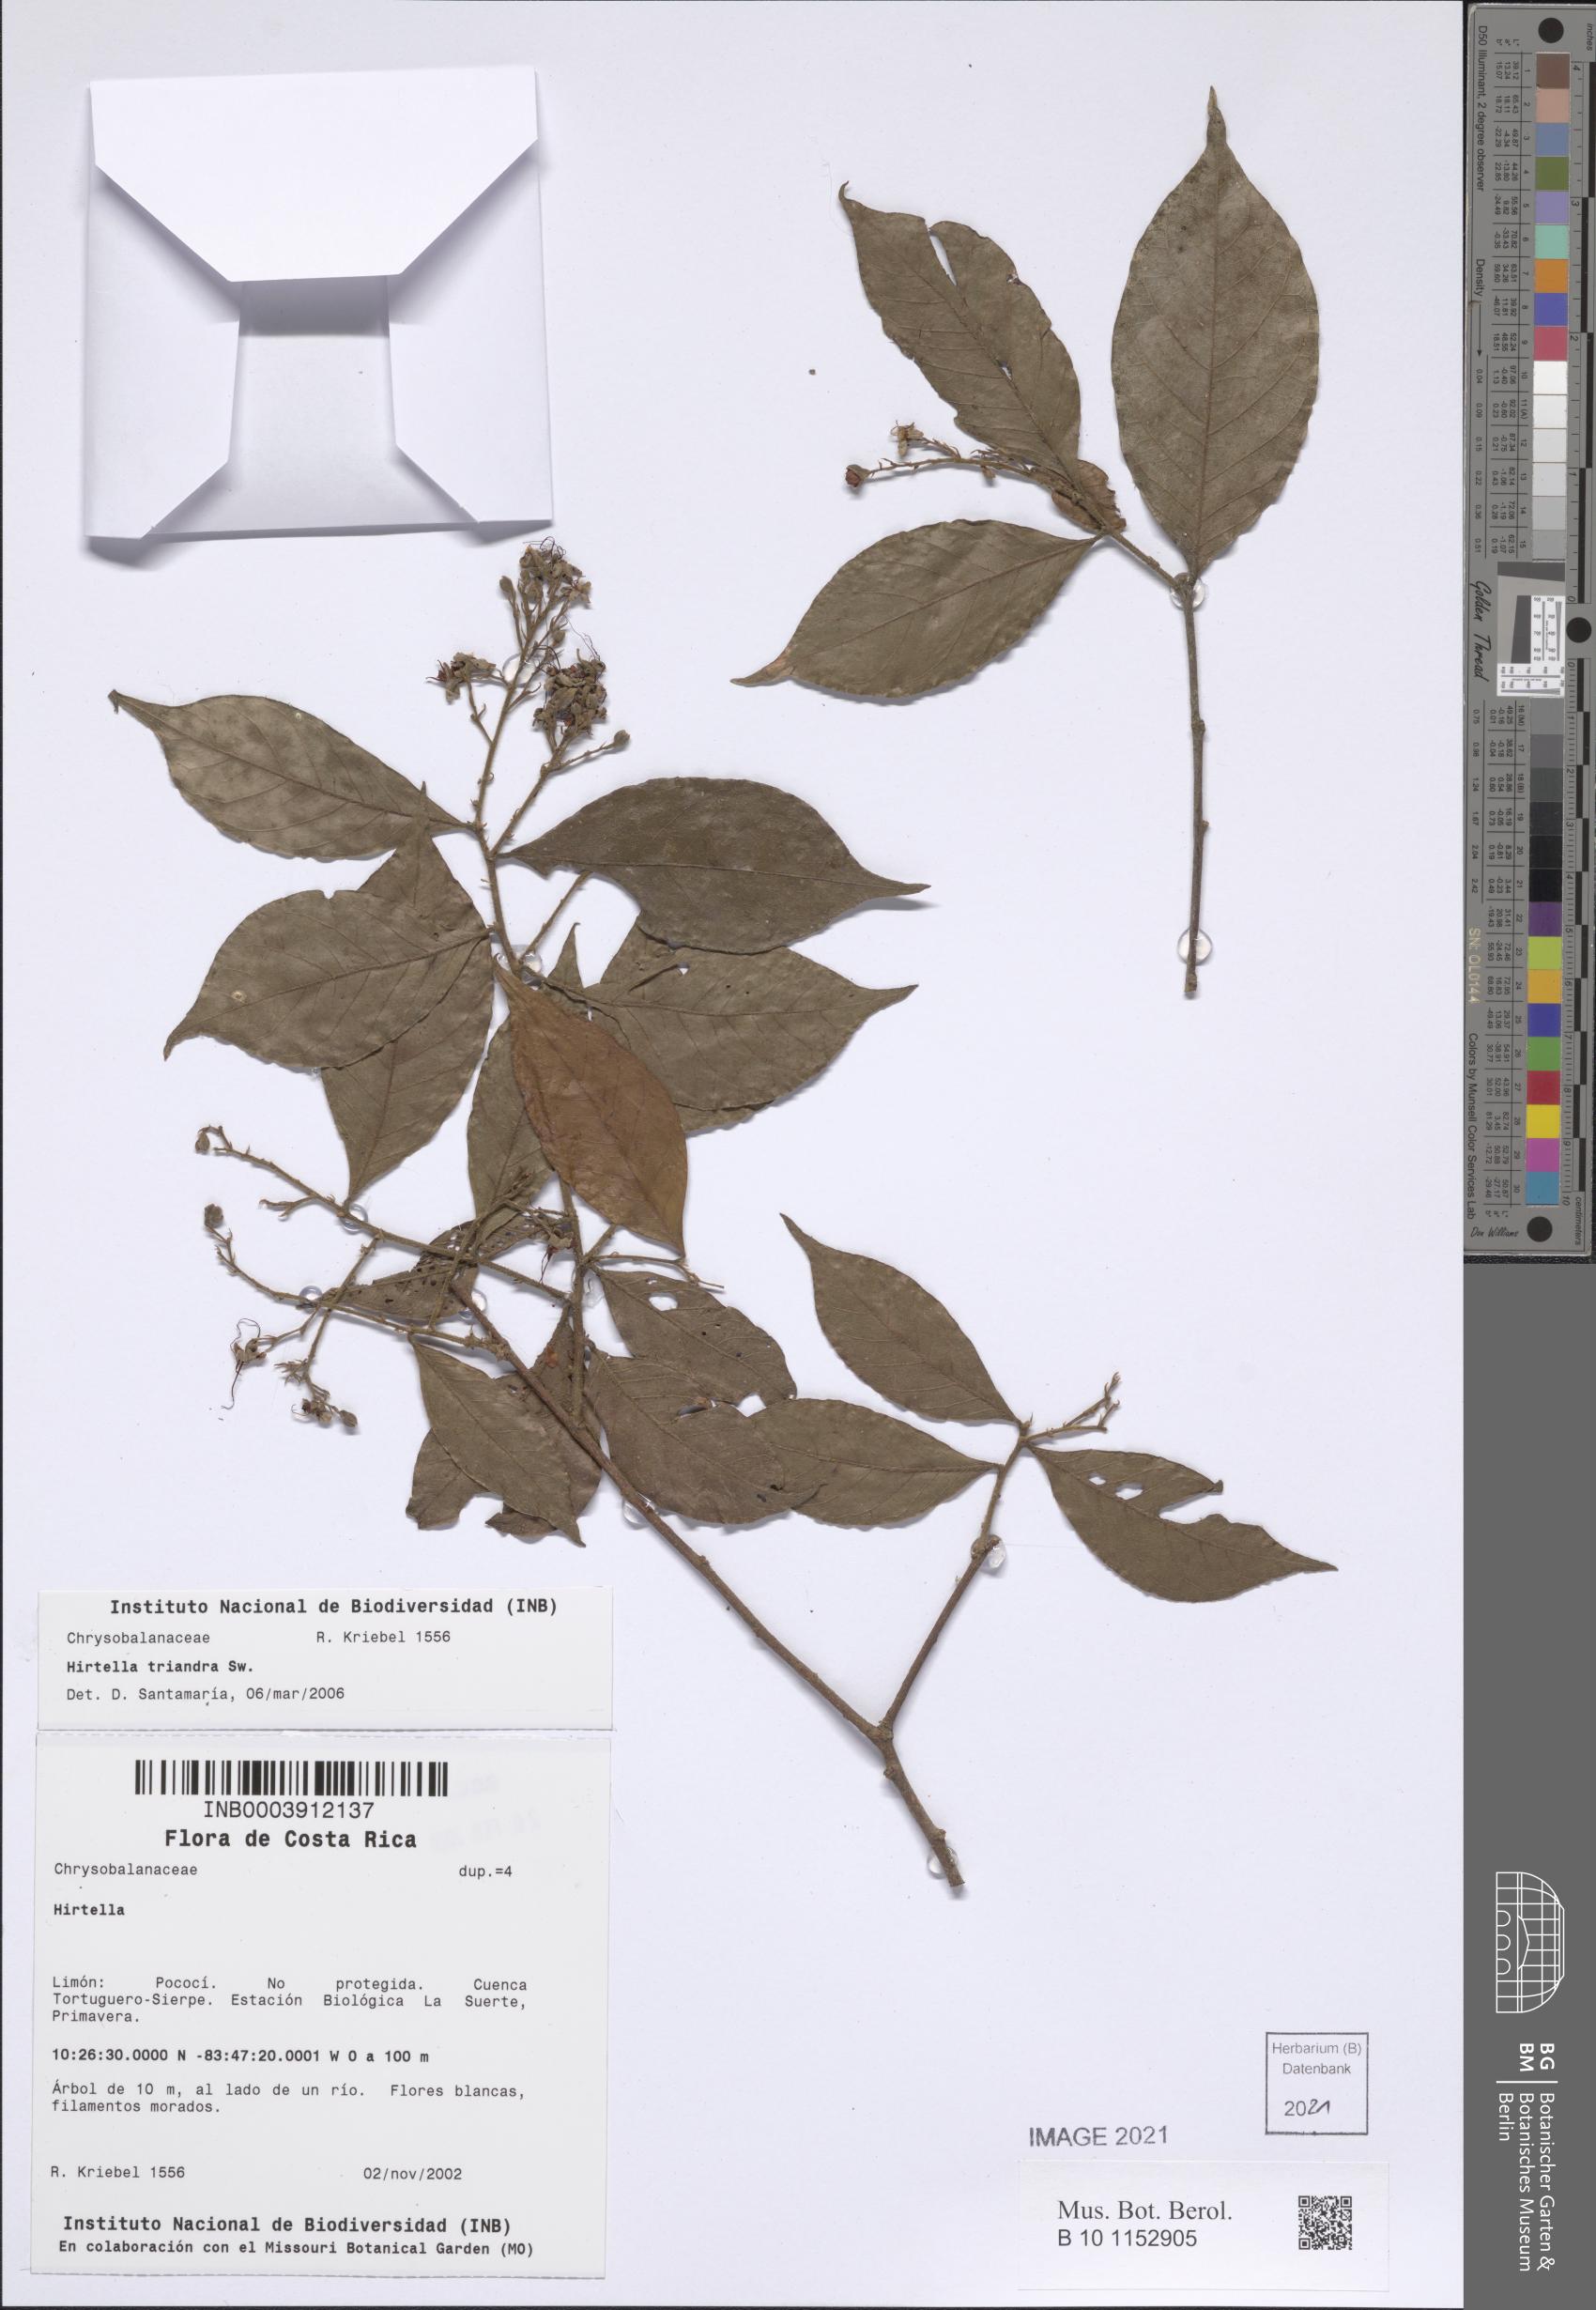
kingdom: Plantae
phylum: Tracheophyta
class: Magnoliopsida
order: Malpighiales
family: Chrysobalanaceae
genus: Hirtella
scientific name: Hirtella triandra
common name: Hairy plum
